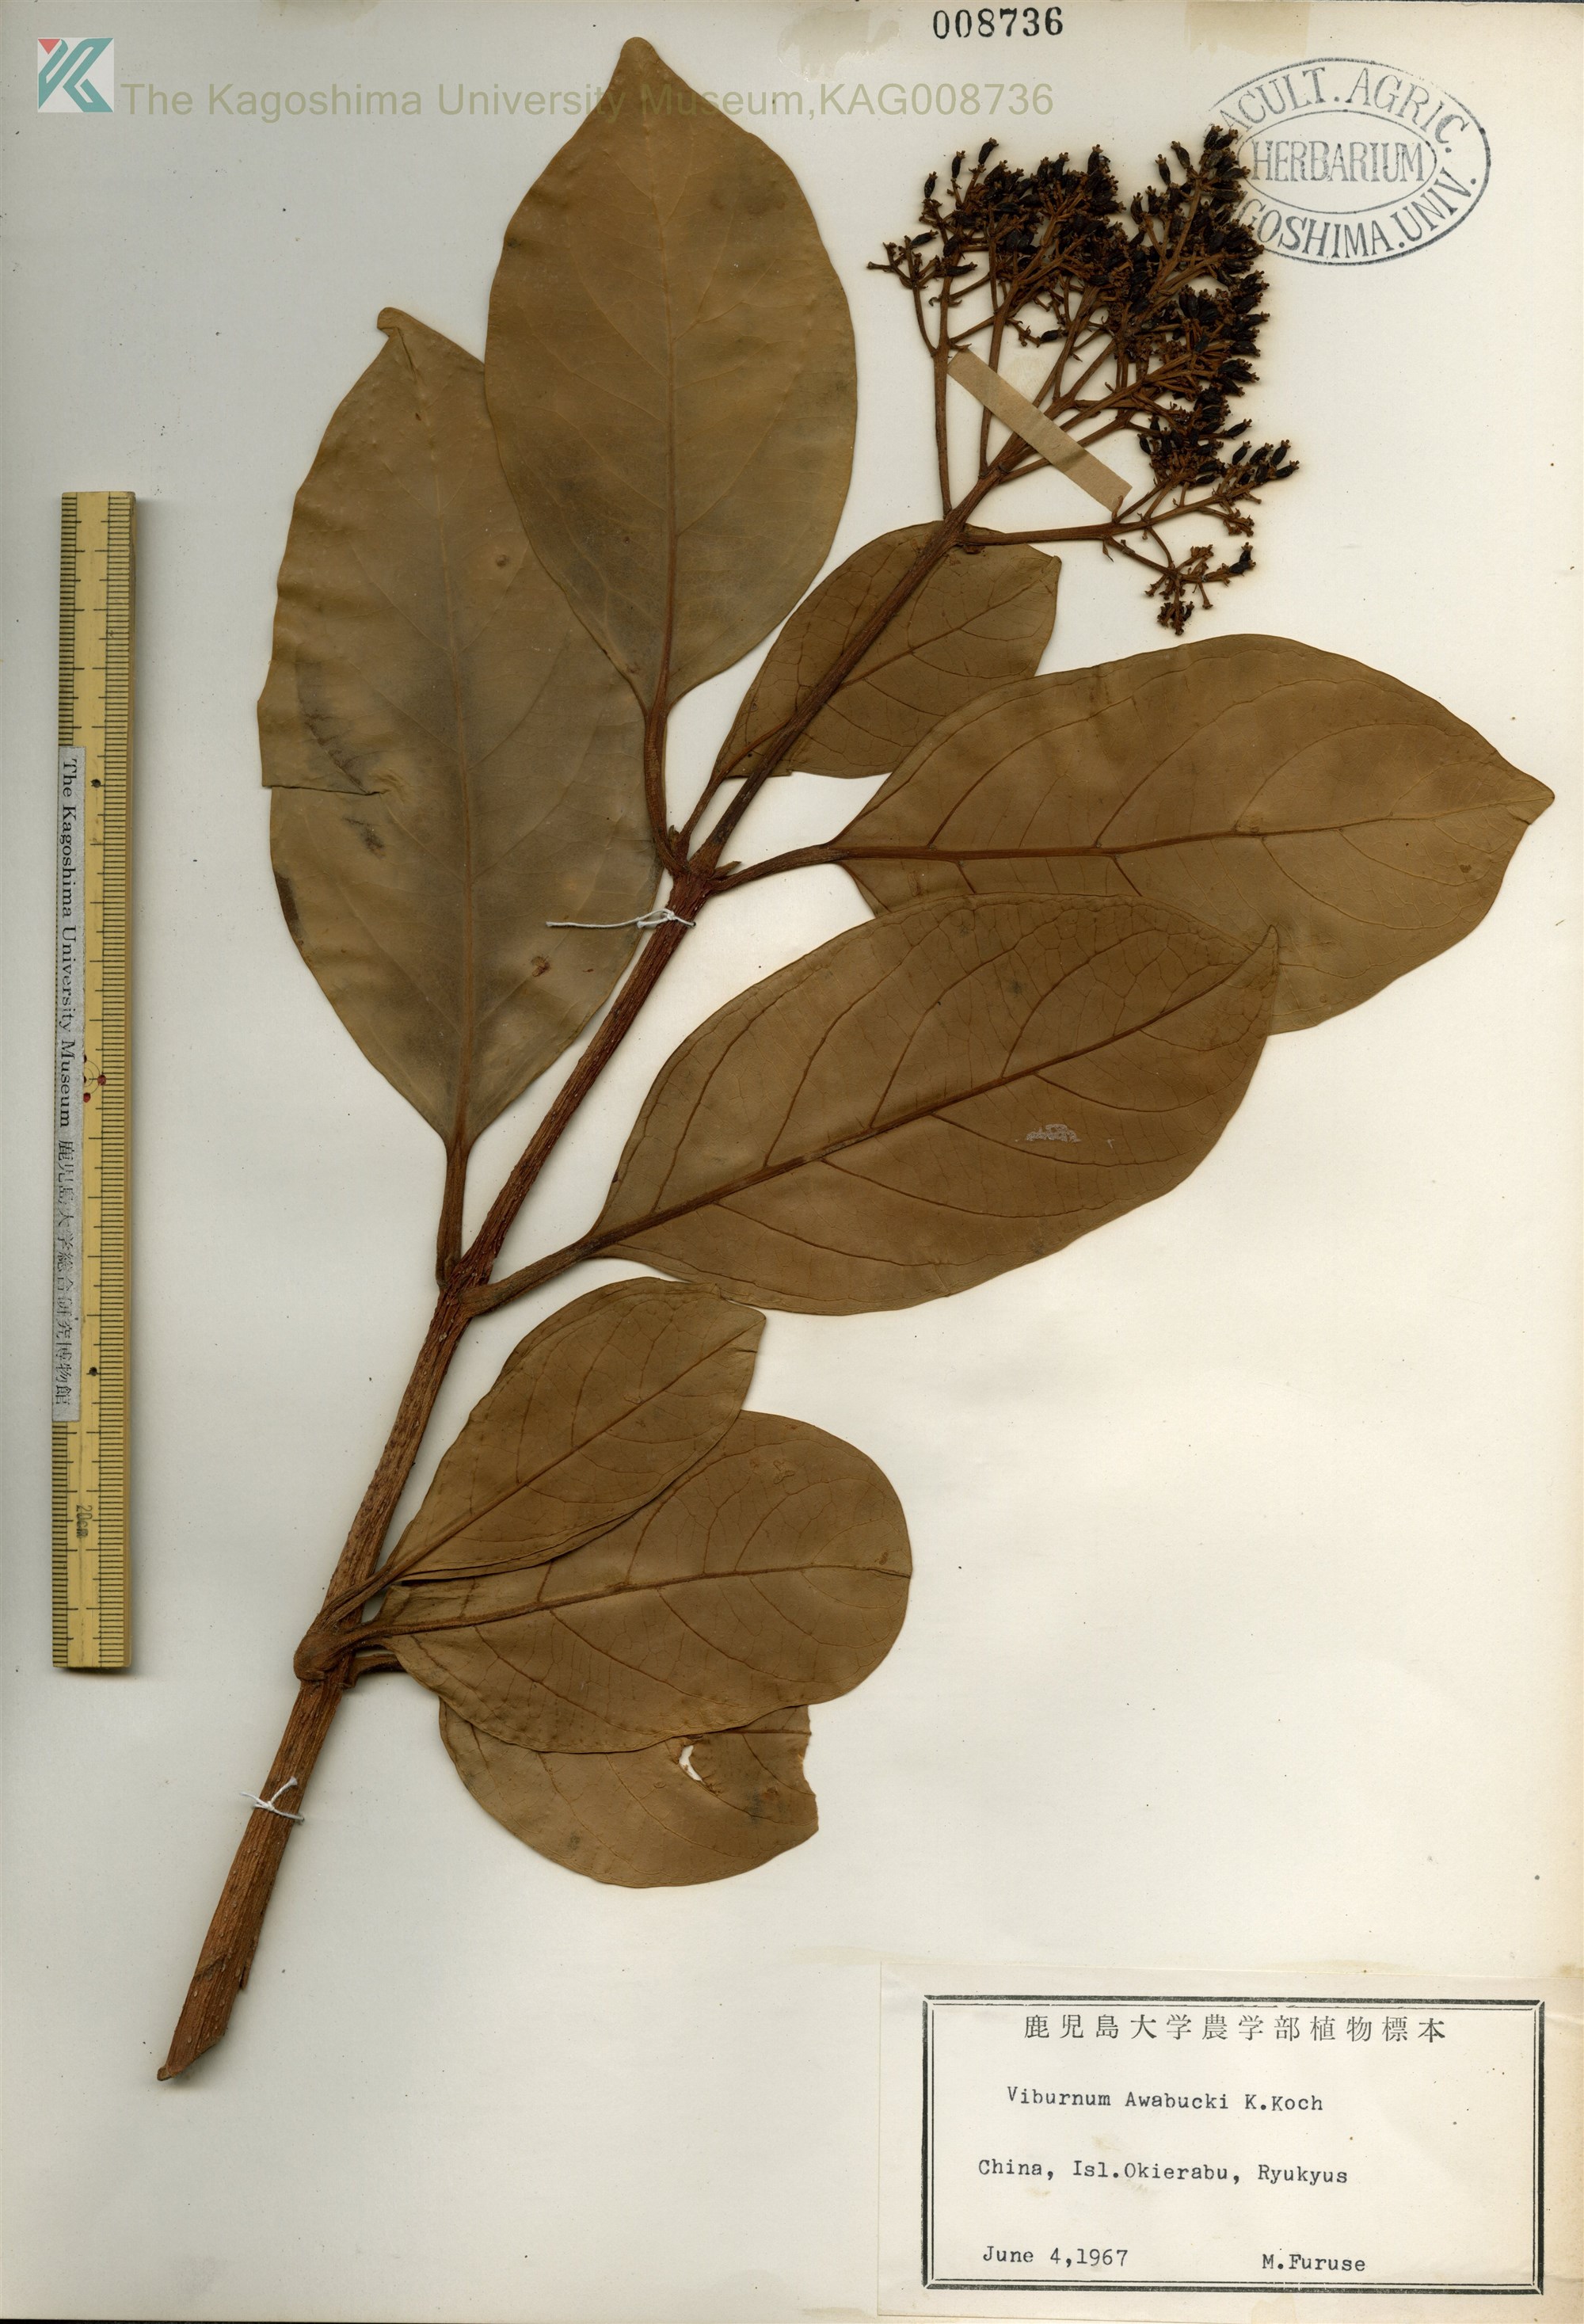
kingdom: Plantae
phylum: Tracheophyta
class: Magnoliopsida
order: Dipsacales
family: Viburnaceae
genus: Viburnum
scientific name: Viburnum odoratissimum
